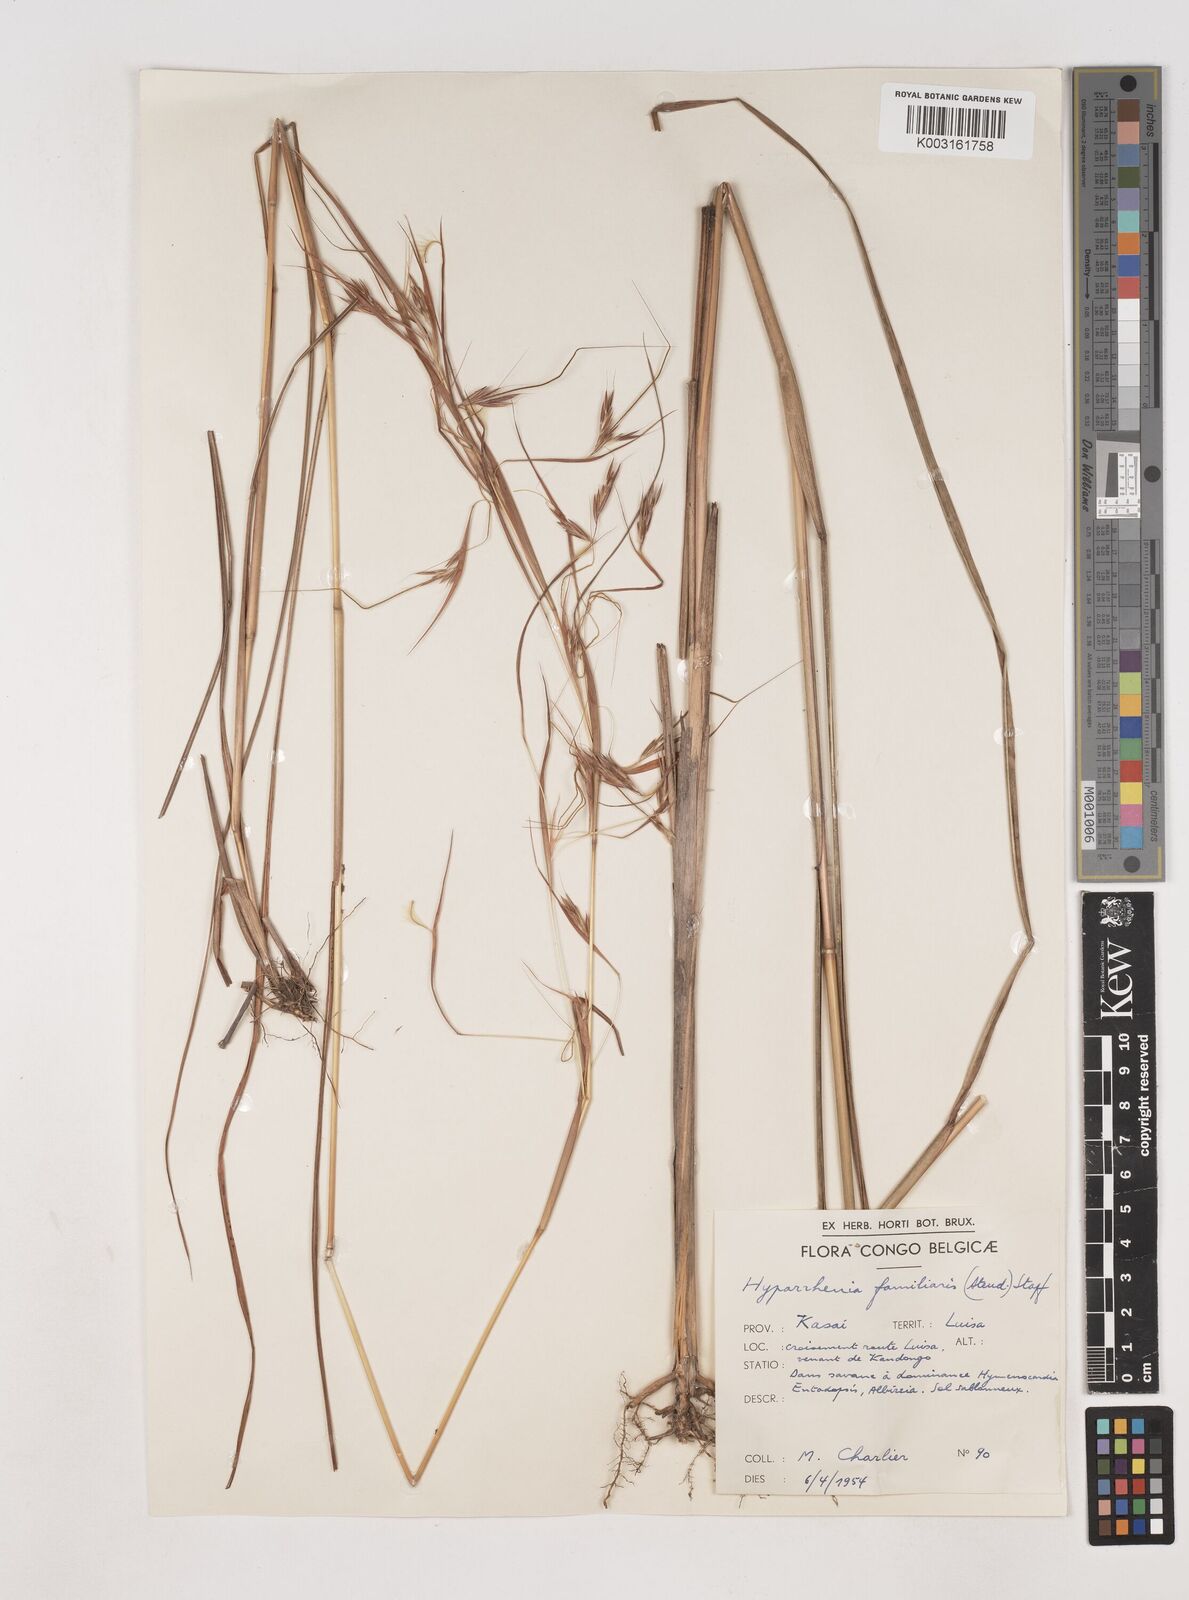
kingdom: Plantae
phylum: Tracheophyta
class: Liliopsida
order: Poales
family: Poaceae
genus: Hyparrhenia
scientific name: Hyparrhenia familiaris
